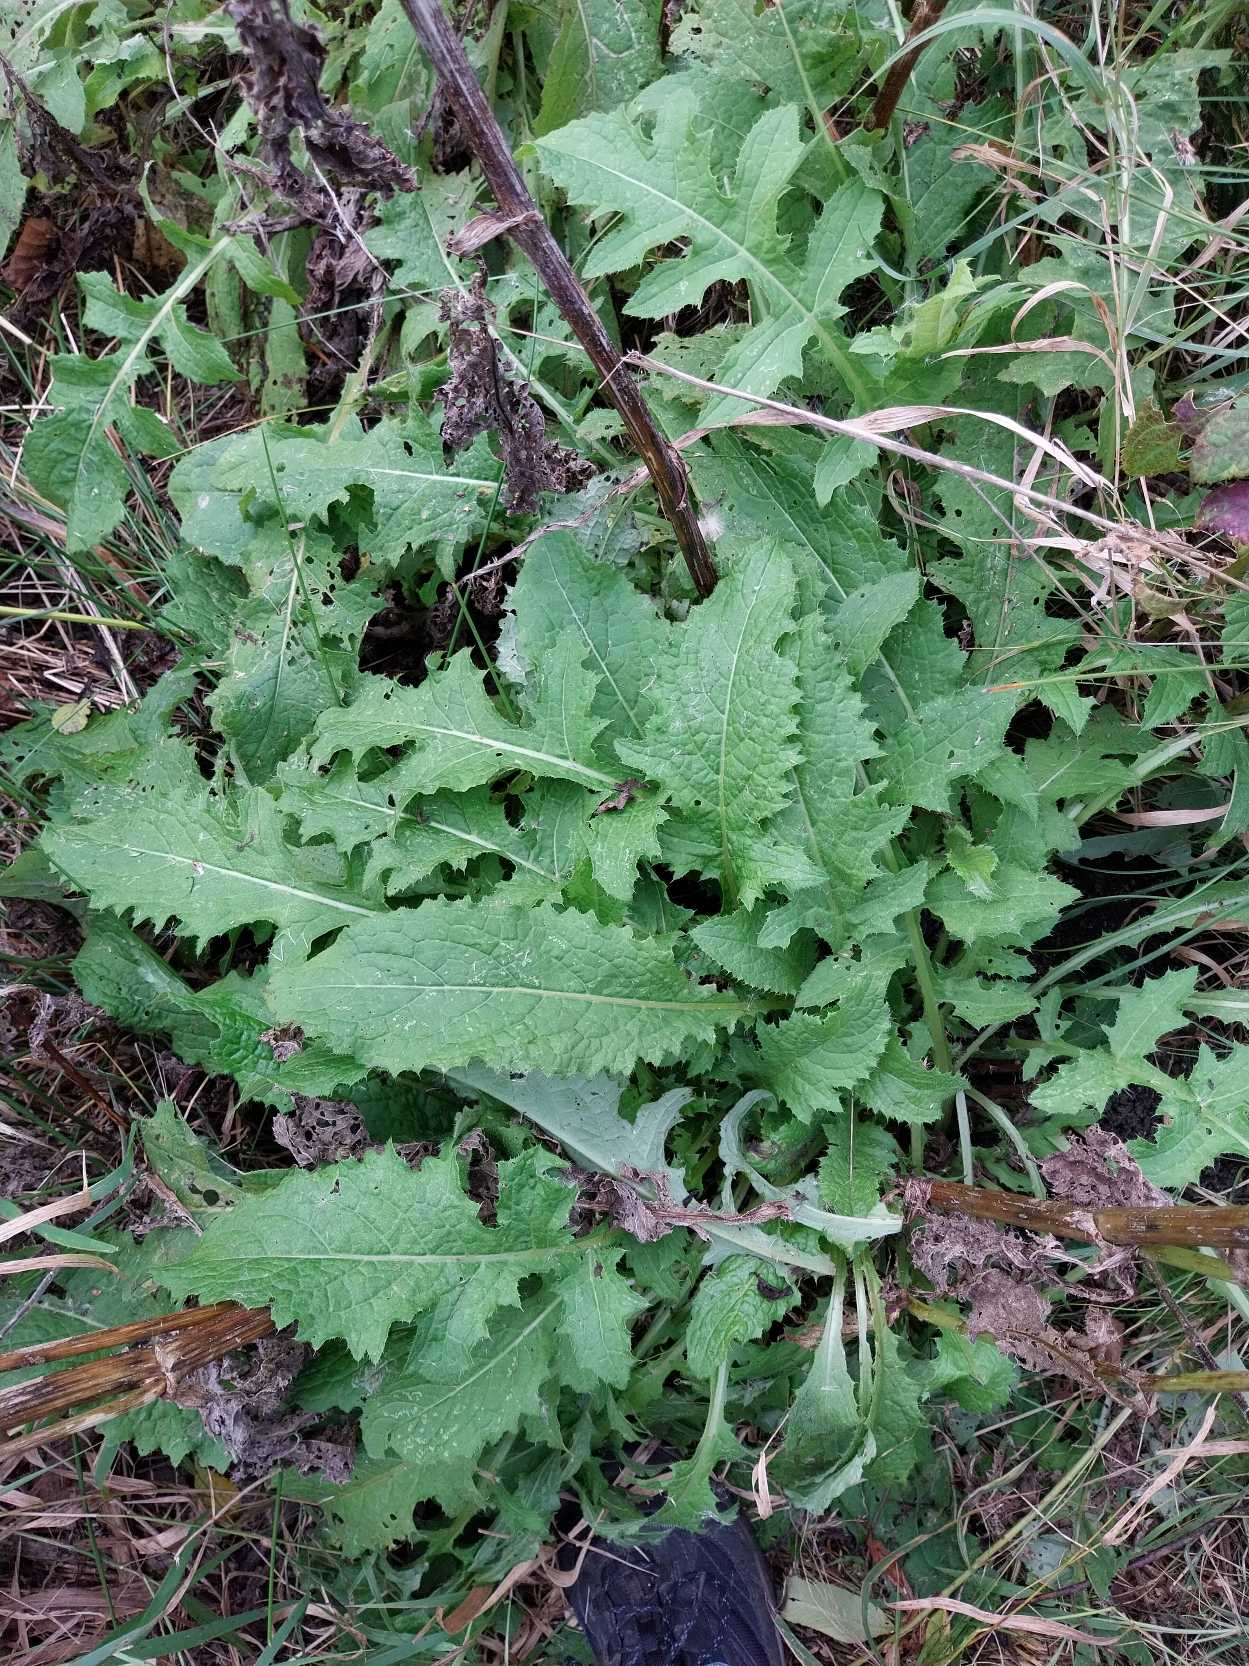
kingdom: Plantae
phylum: Tracheophyta
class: Magnoliopsida
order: Asterales
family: Asteraceae
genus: Cirsium
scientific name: Cirsium oleraceum
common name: Kål-tidsel
